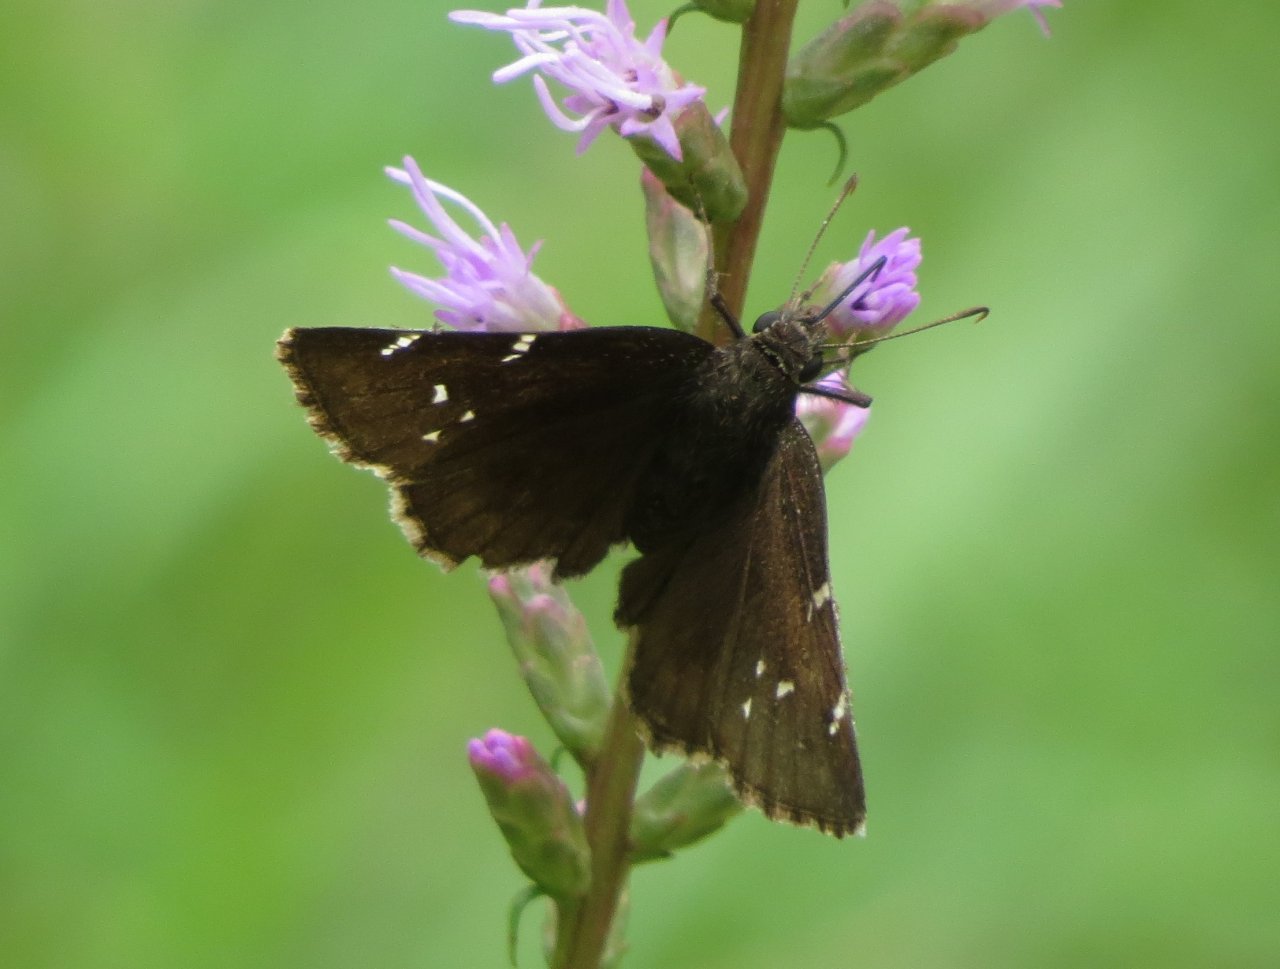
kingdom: Animalia
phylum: Arthropoda
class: Insecta
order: Lepidoptera
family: Hesperiidae
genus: Autochton
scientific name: Autochton
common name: Northern Cloudywing
